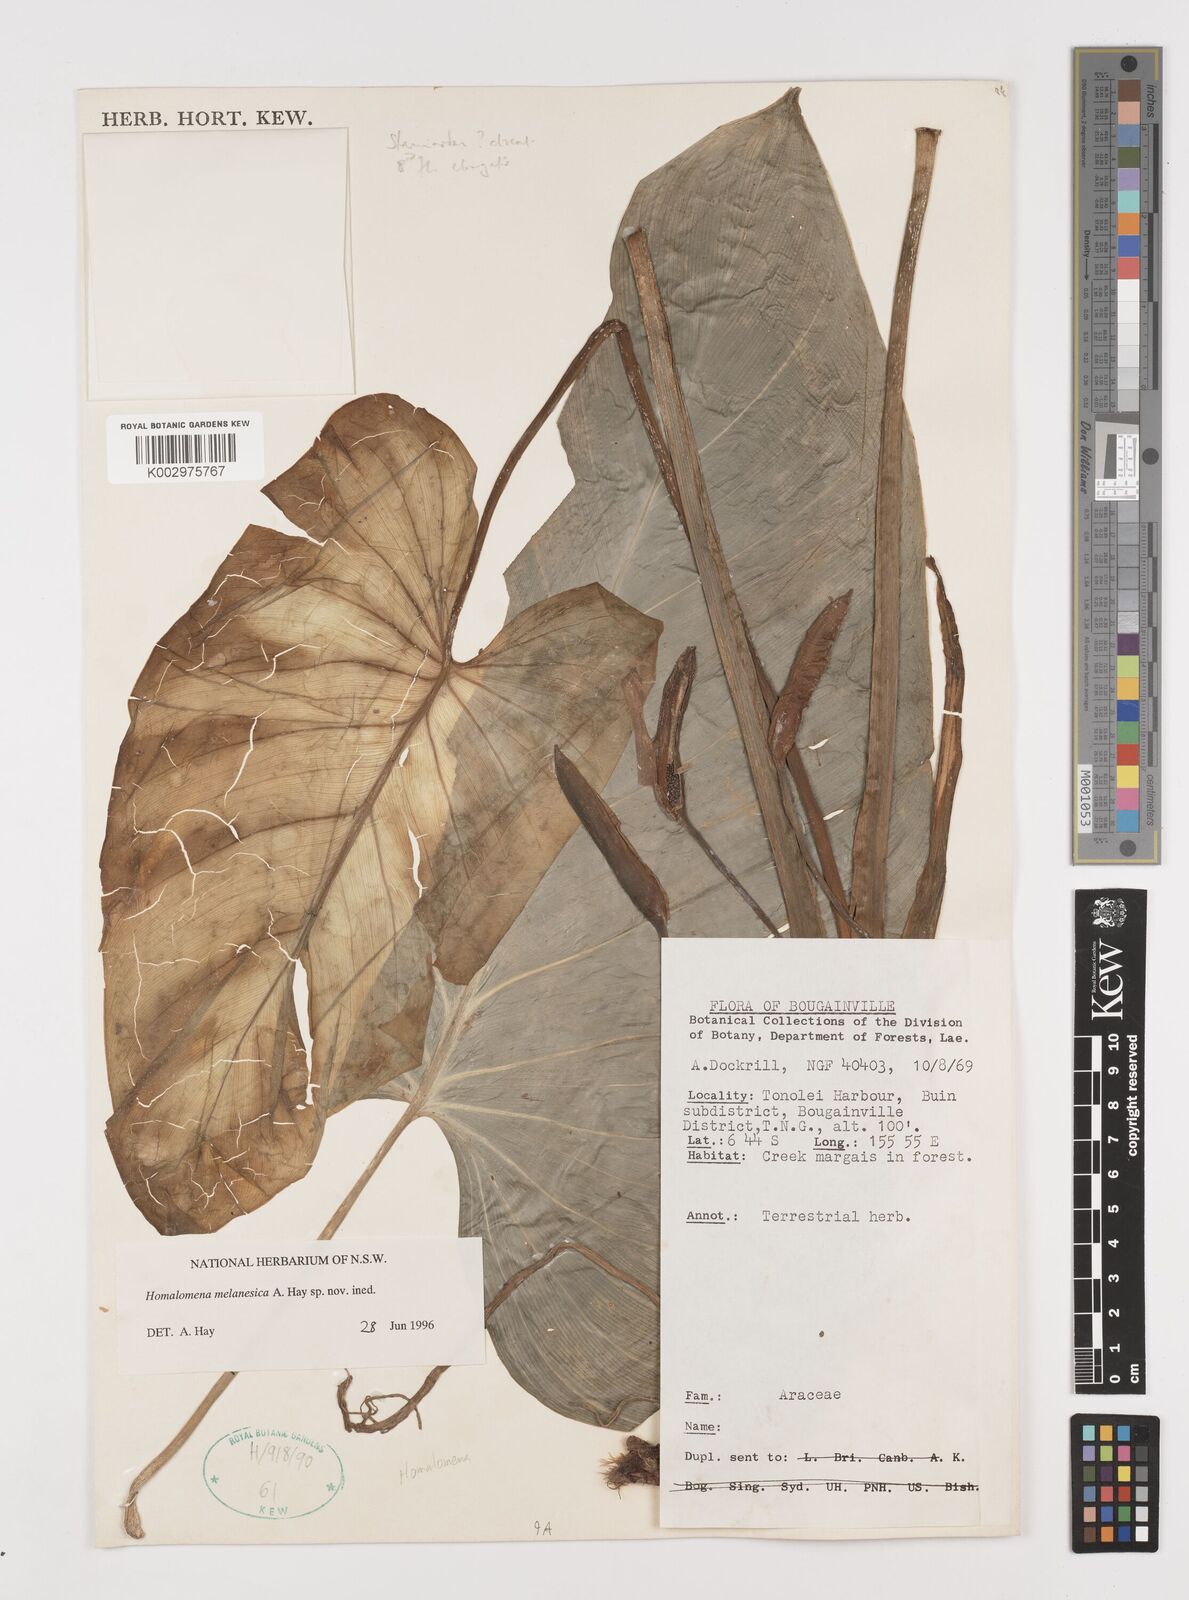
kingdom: Plantae
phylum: Tracheophyta
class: Liliopsida
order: Alismatales
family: Araceae
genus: Homalomena
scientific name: Homalomena melanesica
